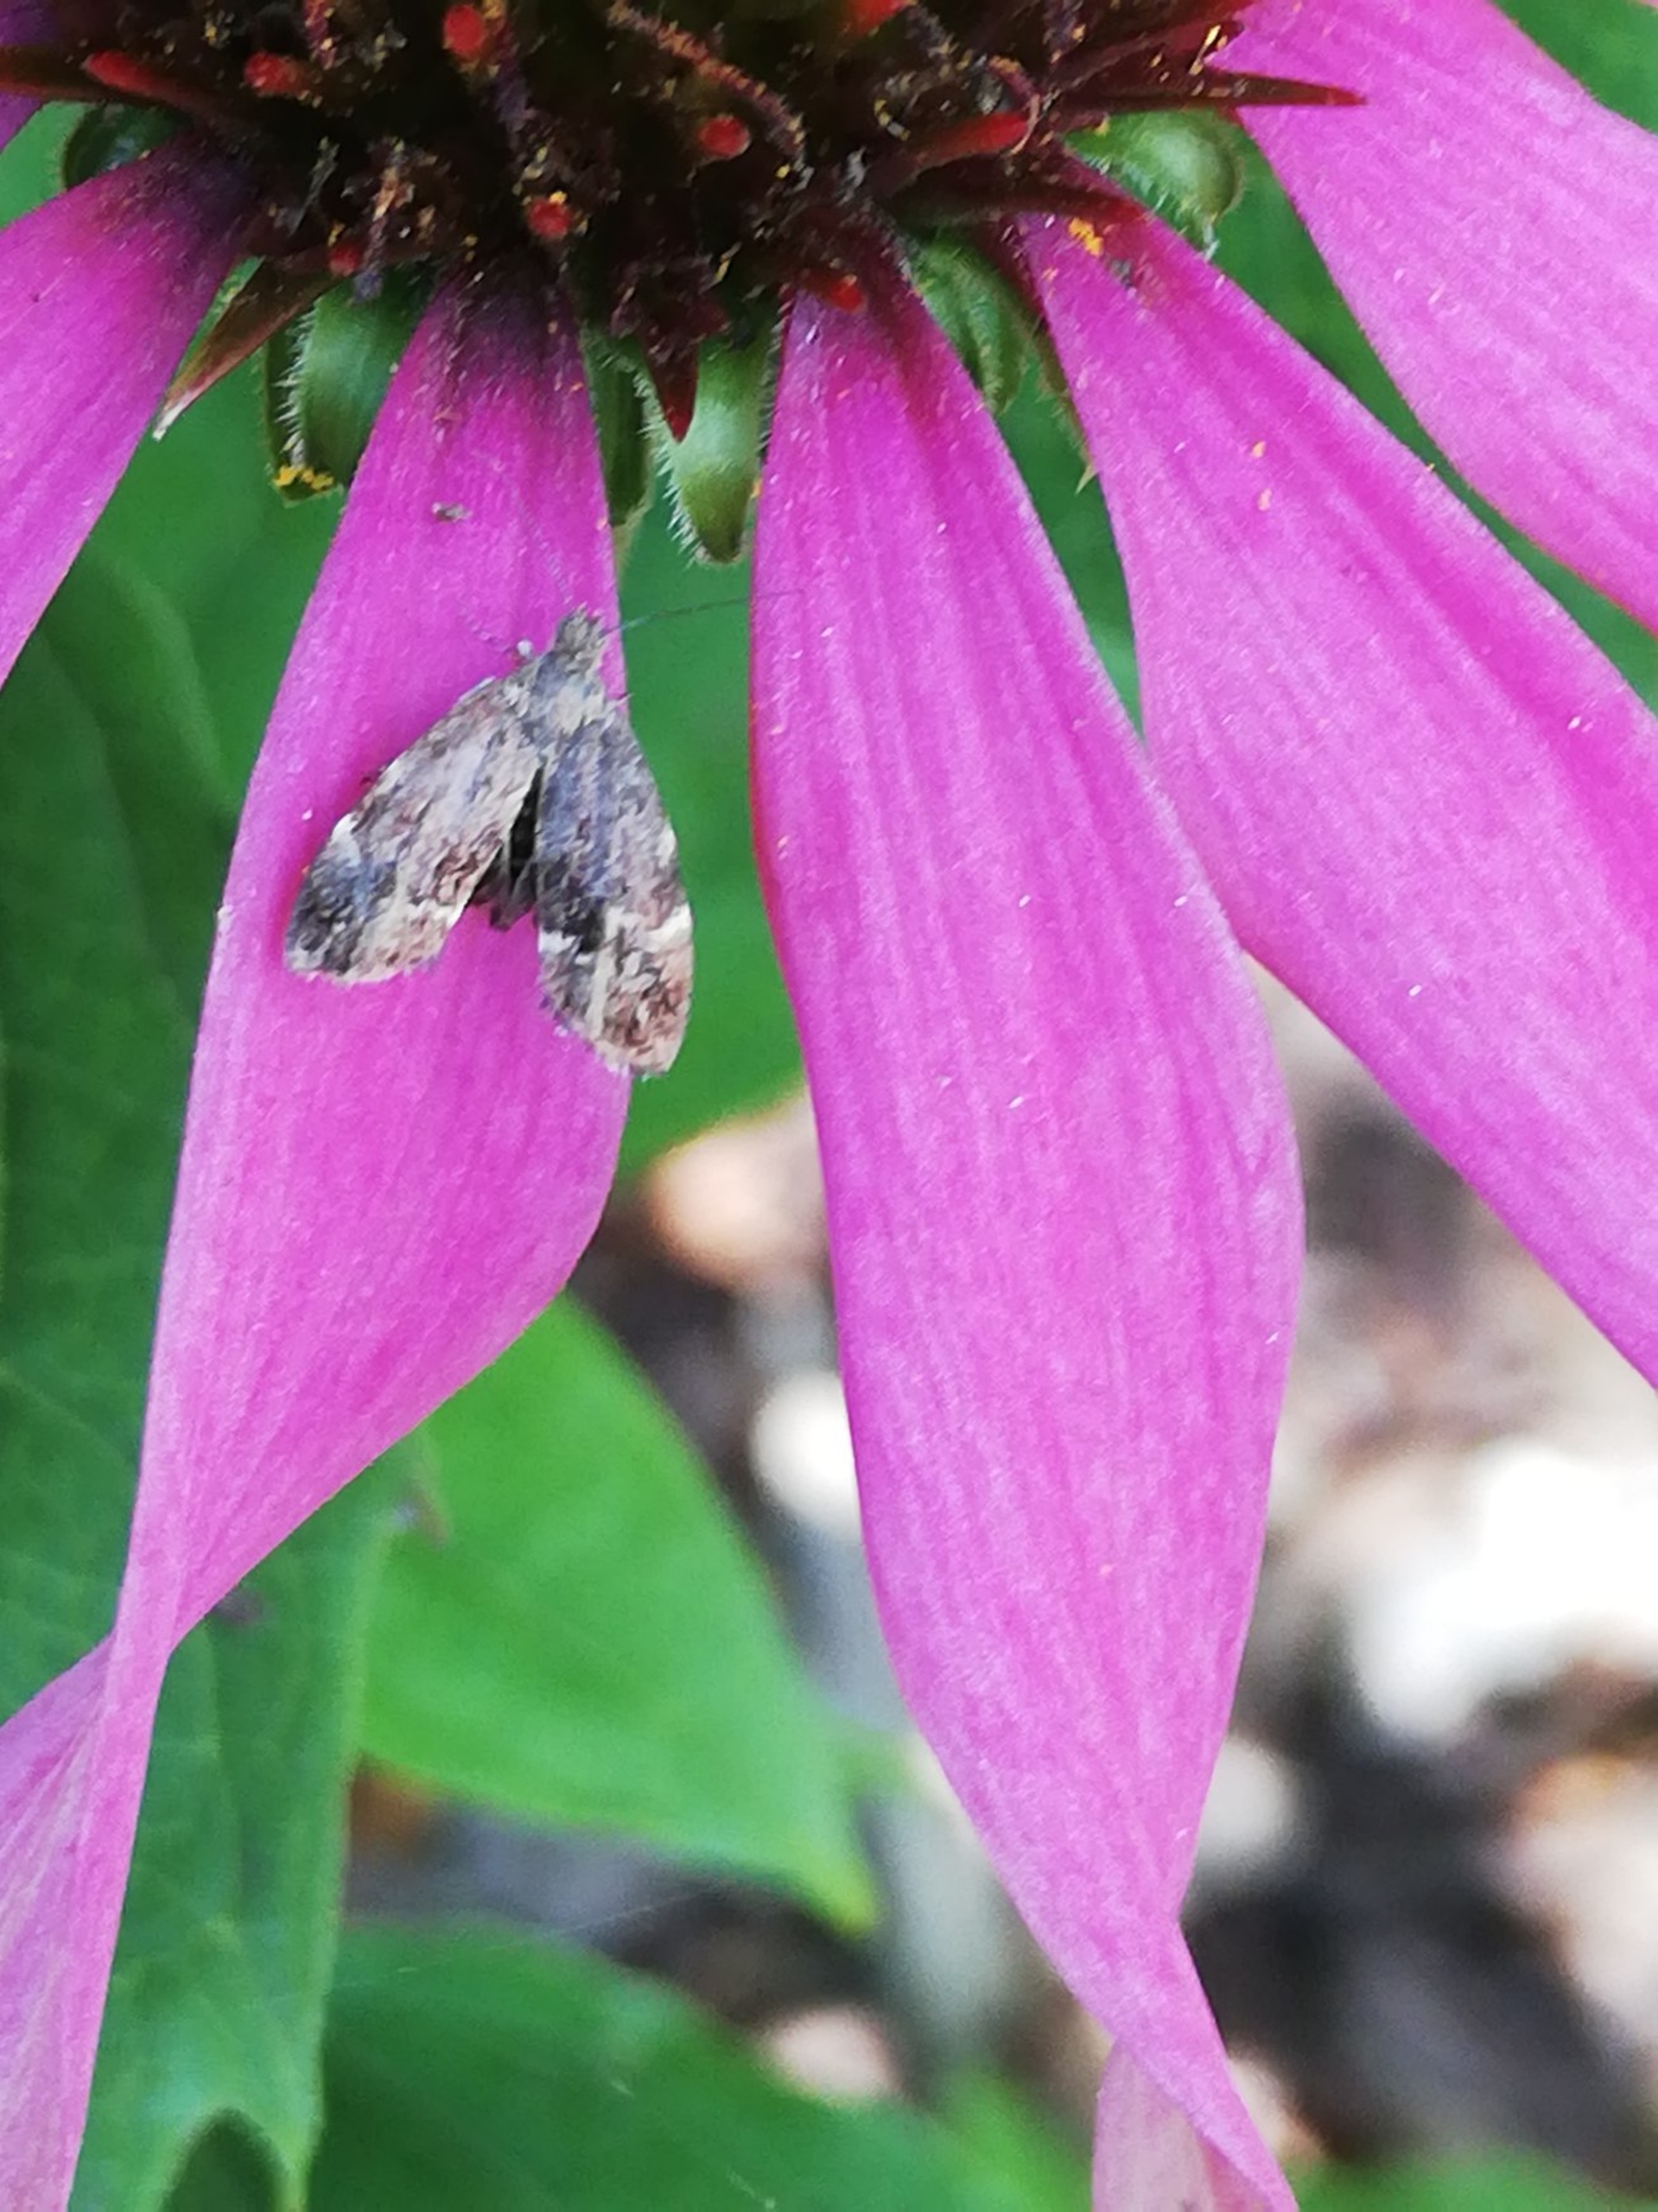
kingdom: Animalia
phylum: Arthropoda
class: Insecta
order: Lepidoptera
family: Choreutidae
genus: Anthophila
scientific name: Anthophila fabriciana
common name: Bredvinget nældevikler
